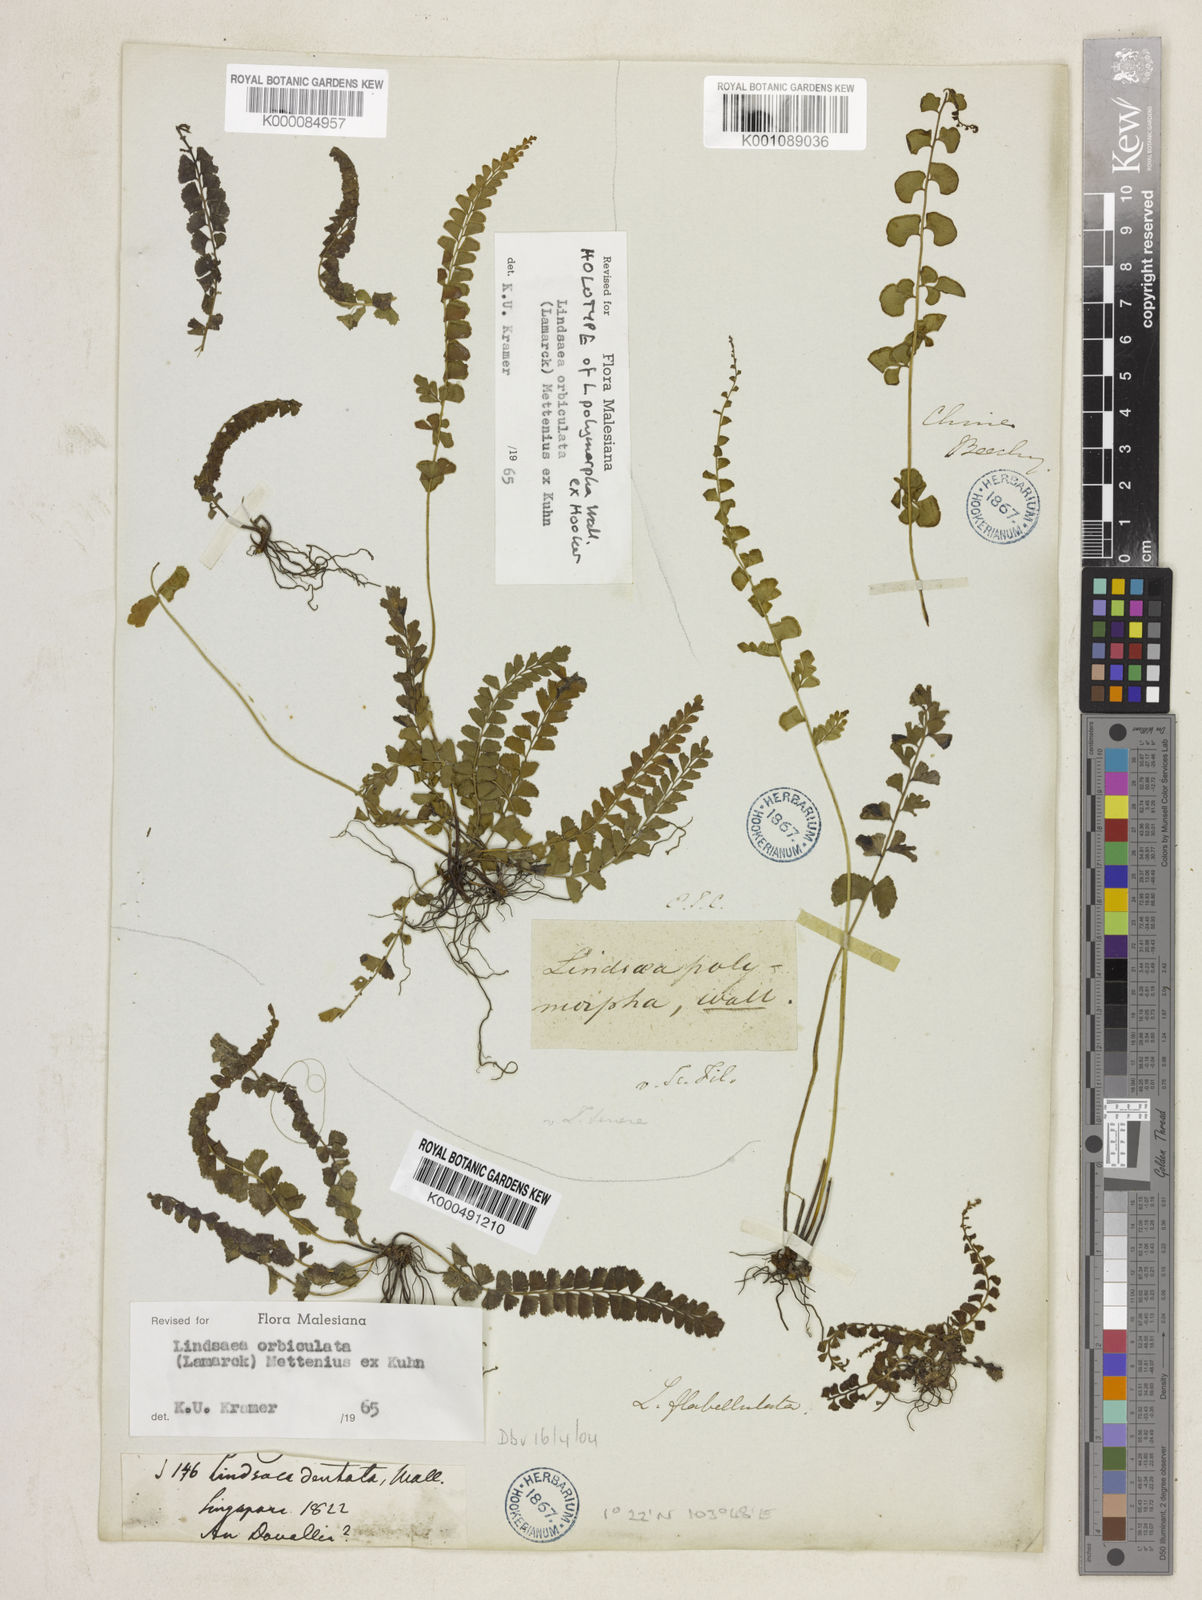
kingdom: Plantae
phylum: Tracheophyta
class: Polypodiopsida
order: Polypodiales
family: Lindsaeaceae
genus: Lindsaea
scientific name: Lindsaea orbiculata
